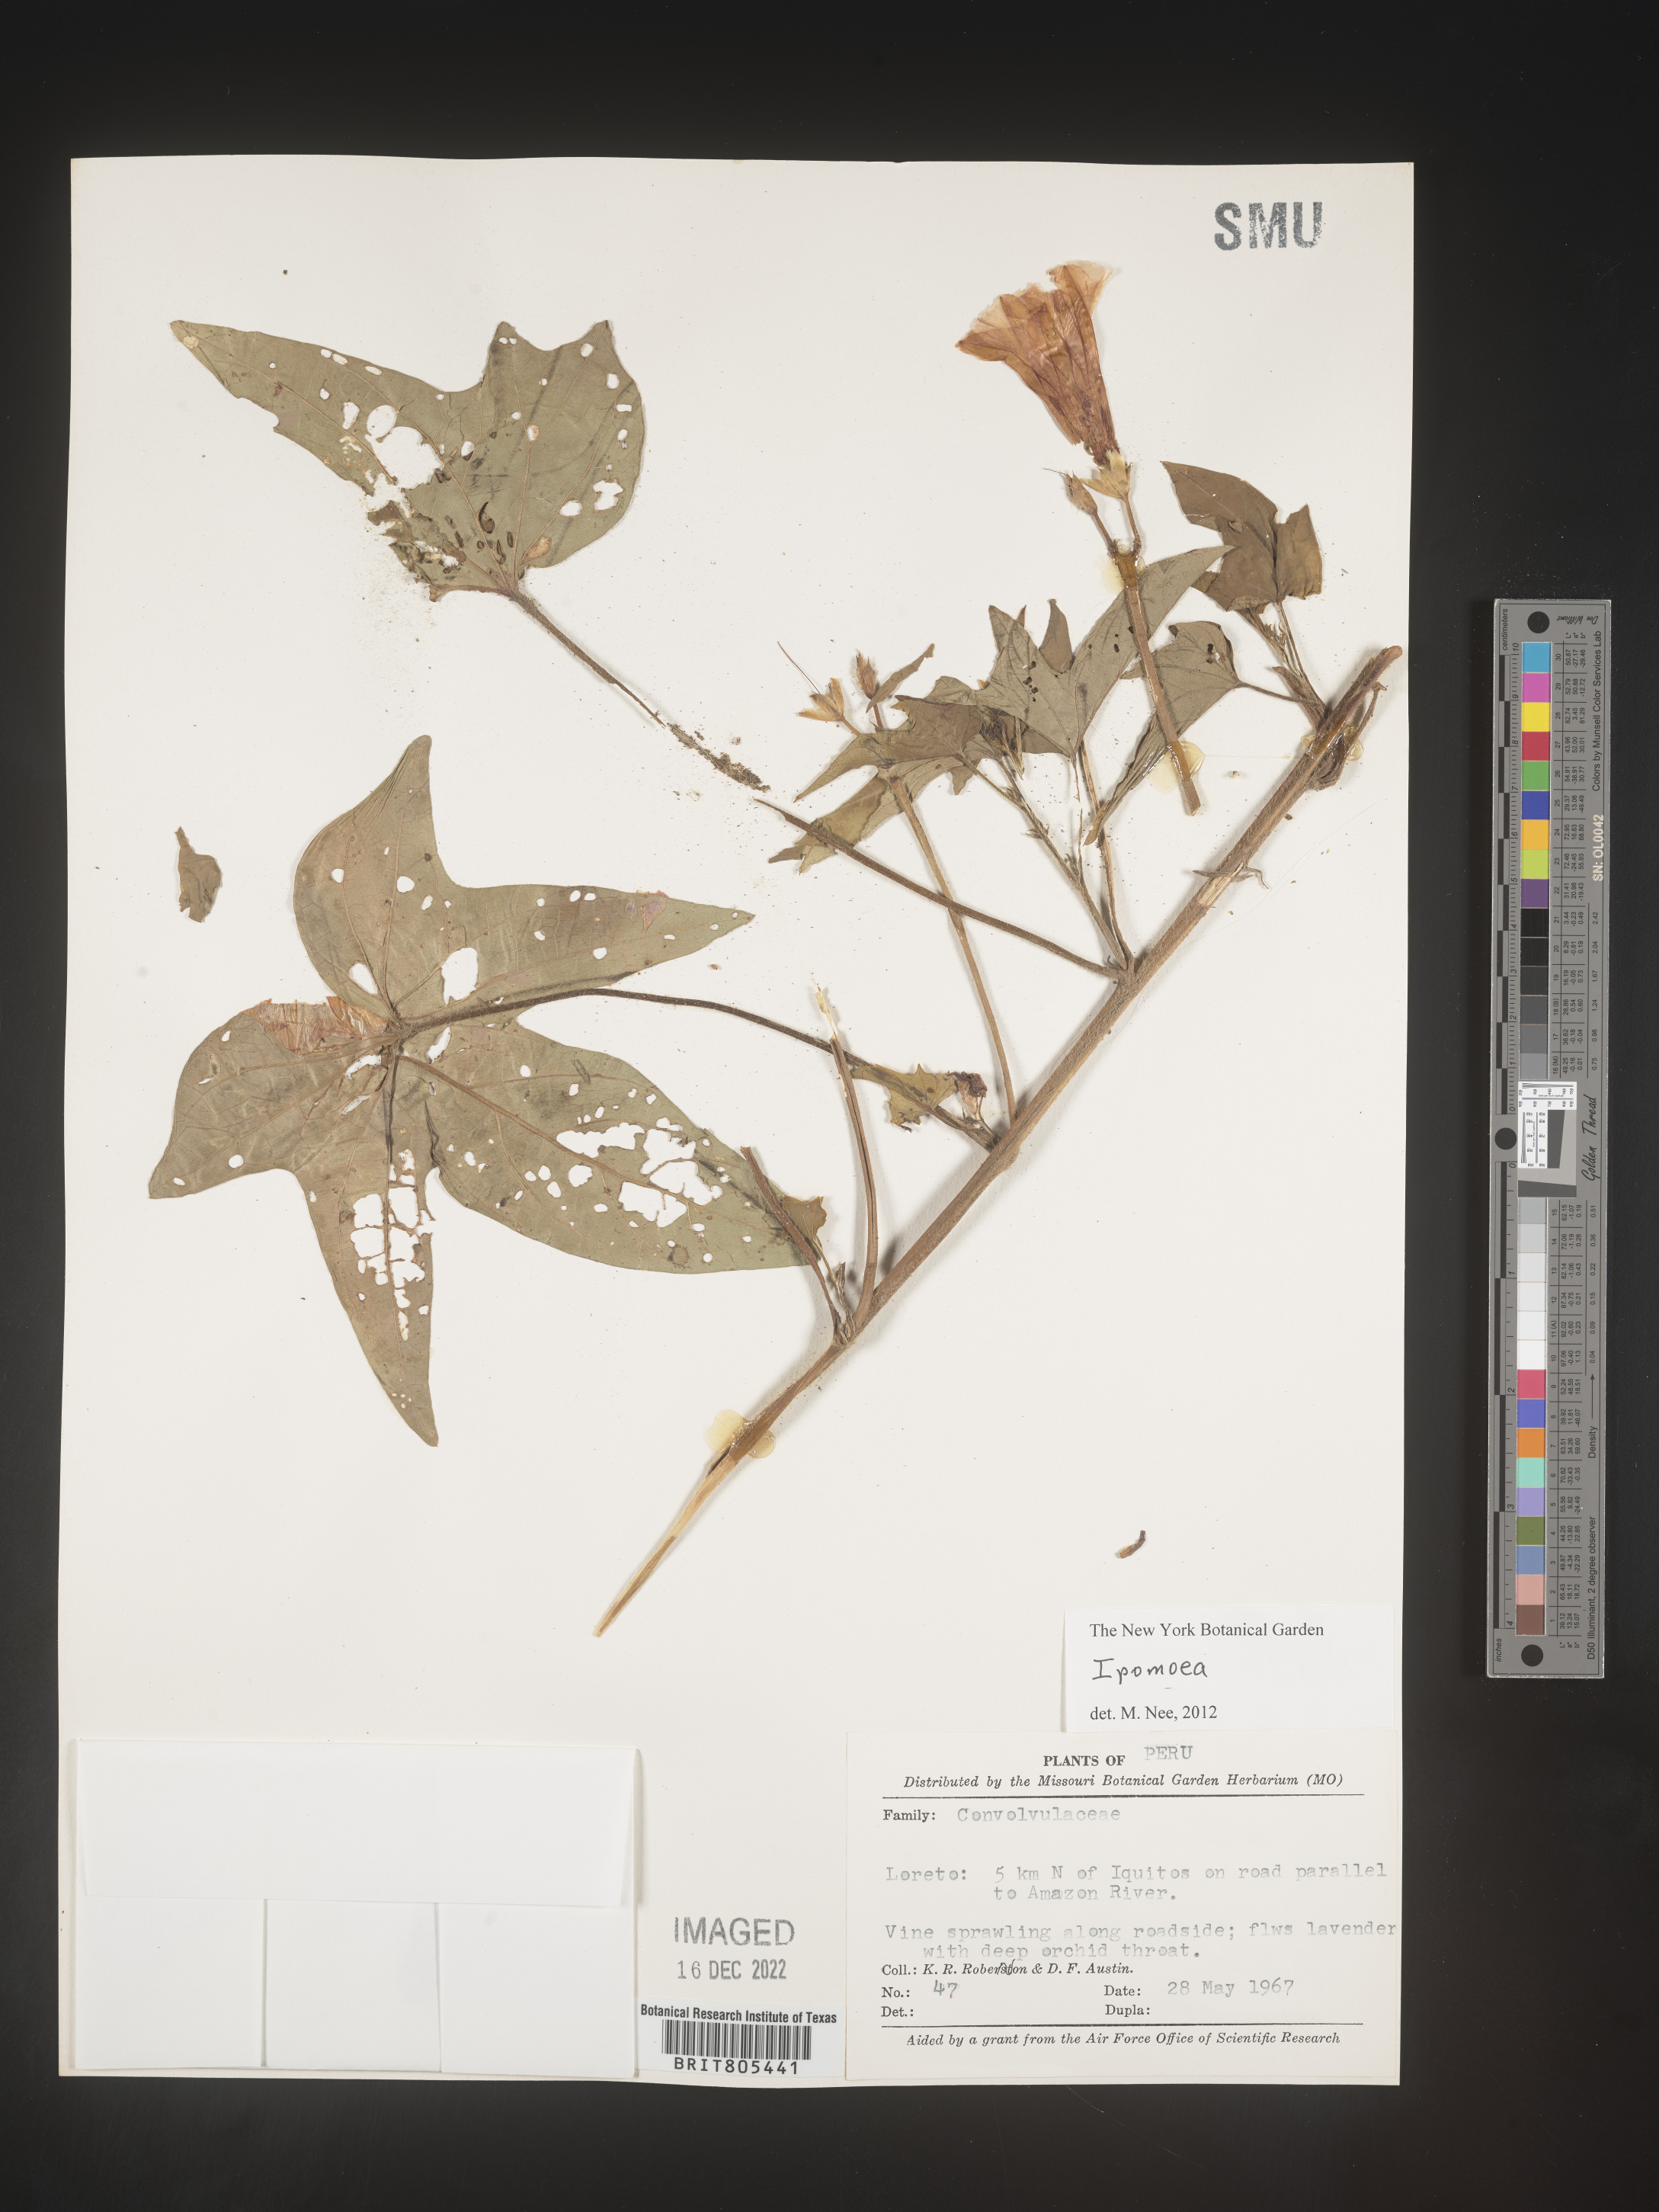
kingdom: Plantae
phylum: Tracheophyta
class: Magnoliopsida
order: Solanales
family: Convolvulaceae
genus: Ipomoea
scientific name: Ipomoea
